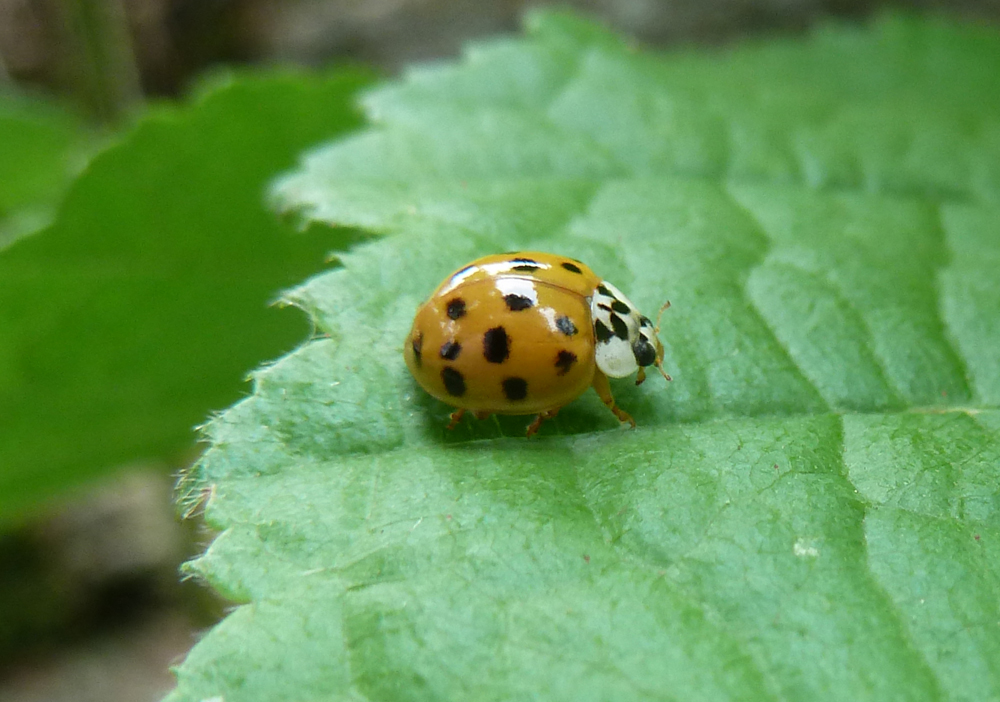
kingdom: Animalia
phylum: Arthropoda
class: Insecta
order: Coleoptera
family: Coccinellidae
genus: Harmonia
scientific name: Harmonia axyridis
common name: Harlequin ladybird
